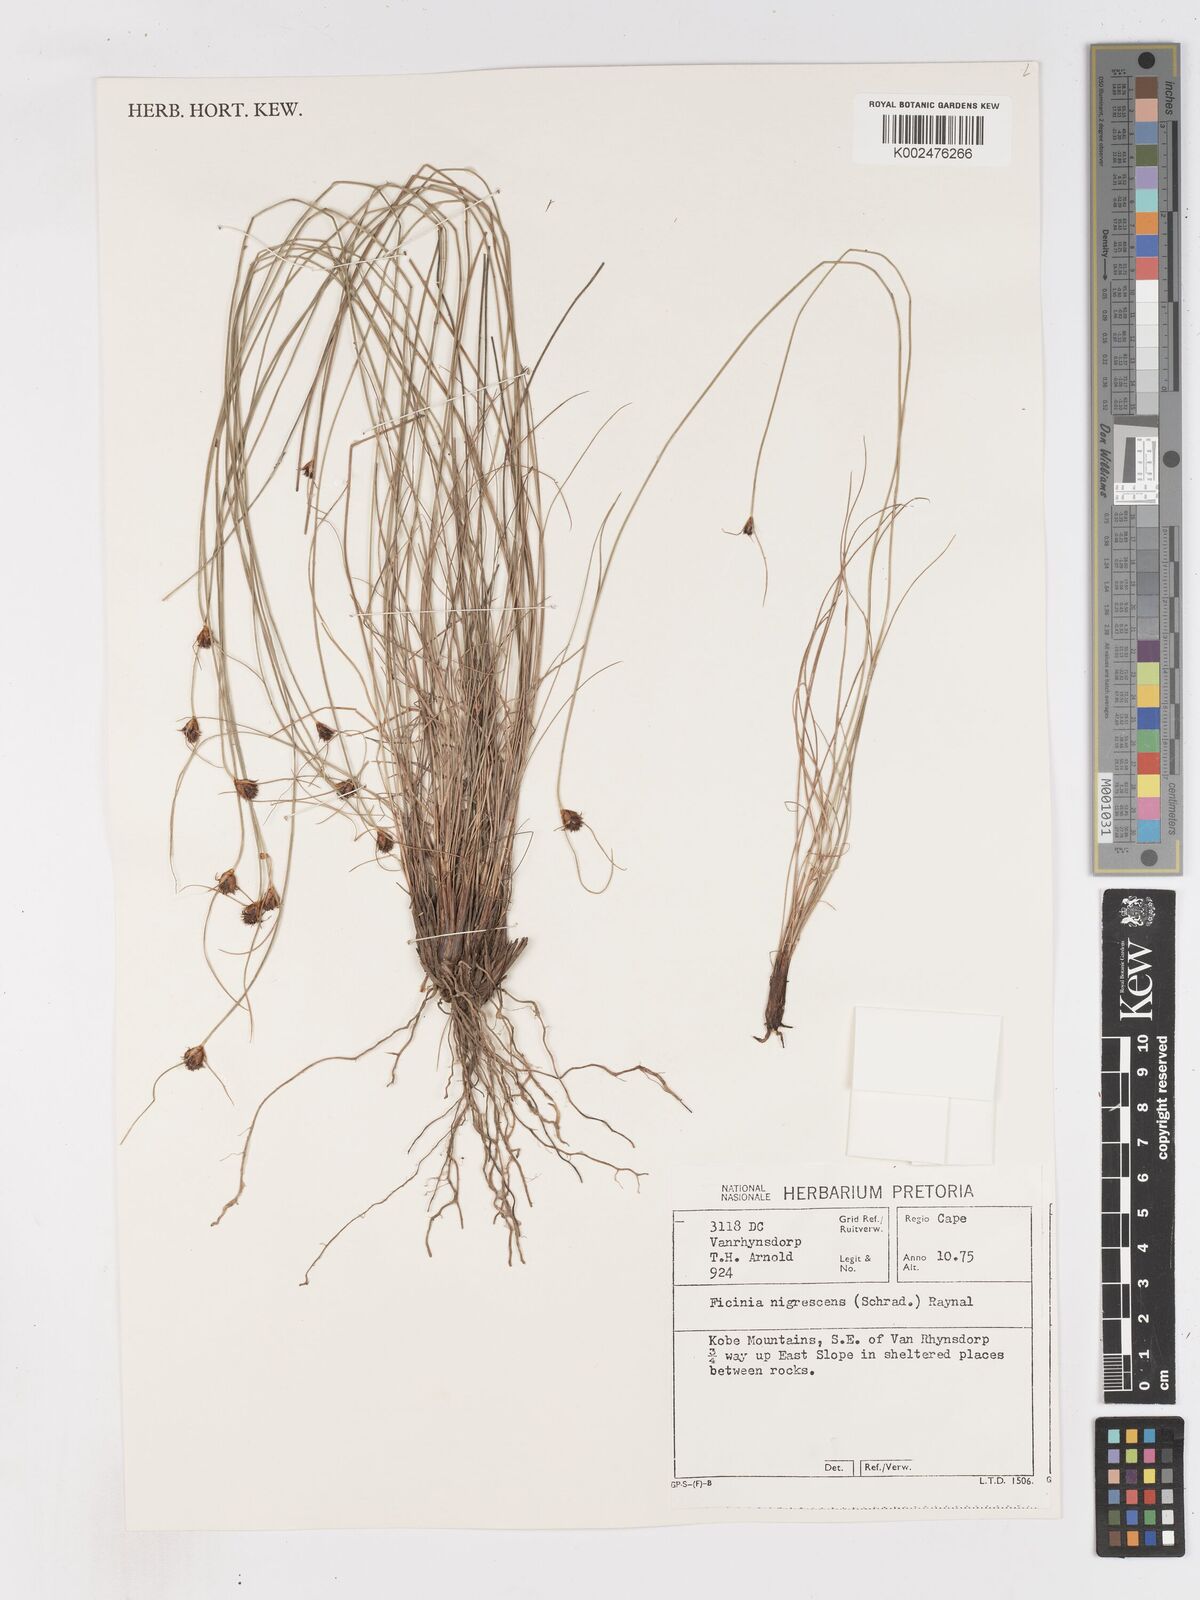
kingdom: Plantae
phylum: Tracheophyta
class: Liliopsida
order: Poales
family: Cyperaceae
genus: Ficinia
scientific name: Ficinia nigrescens
